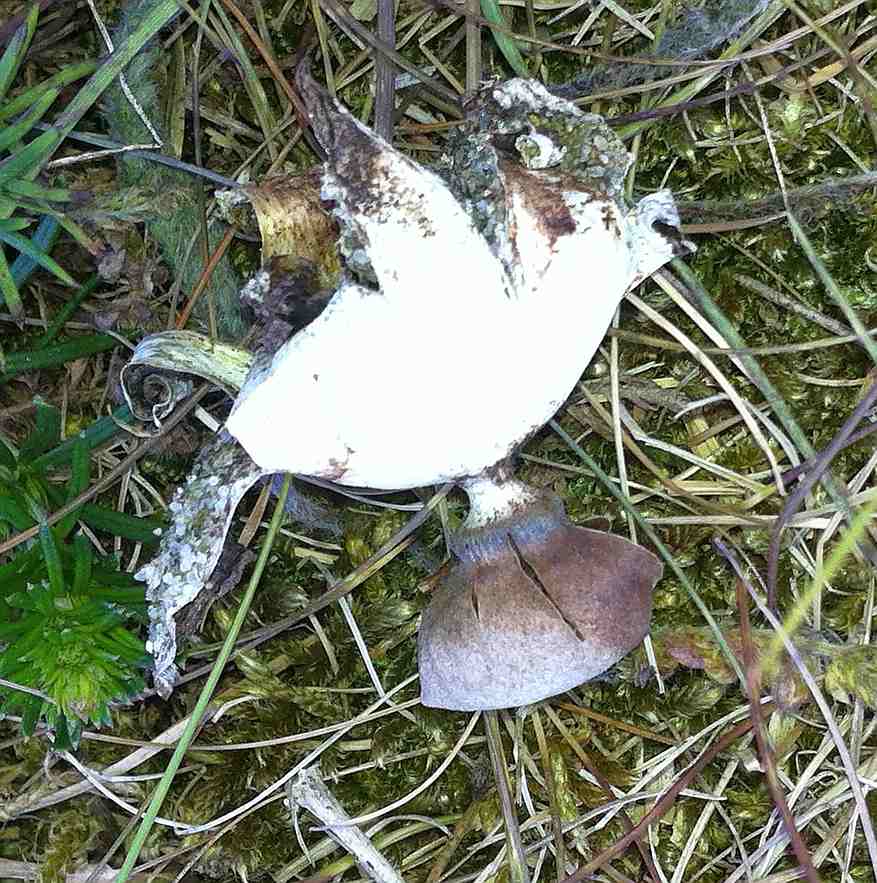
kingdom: Fungi
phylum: Basidiomycota
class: Agaricomycetes
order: Geastrales
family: Geastraceae
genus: Geastrum
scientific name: Geastrum striatum
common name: dværg-stjernebold
